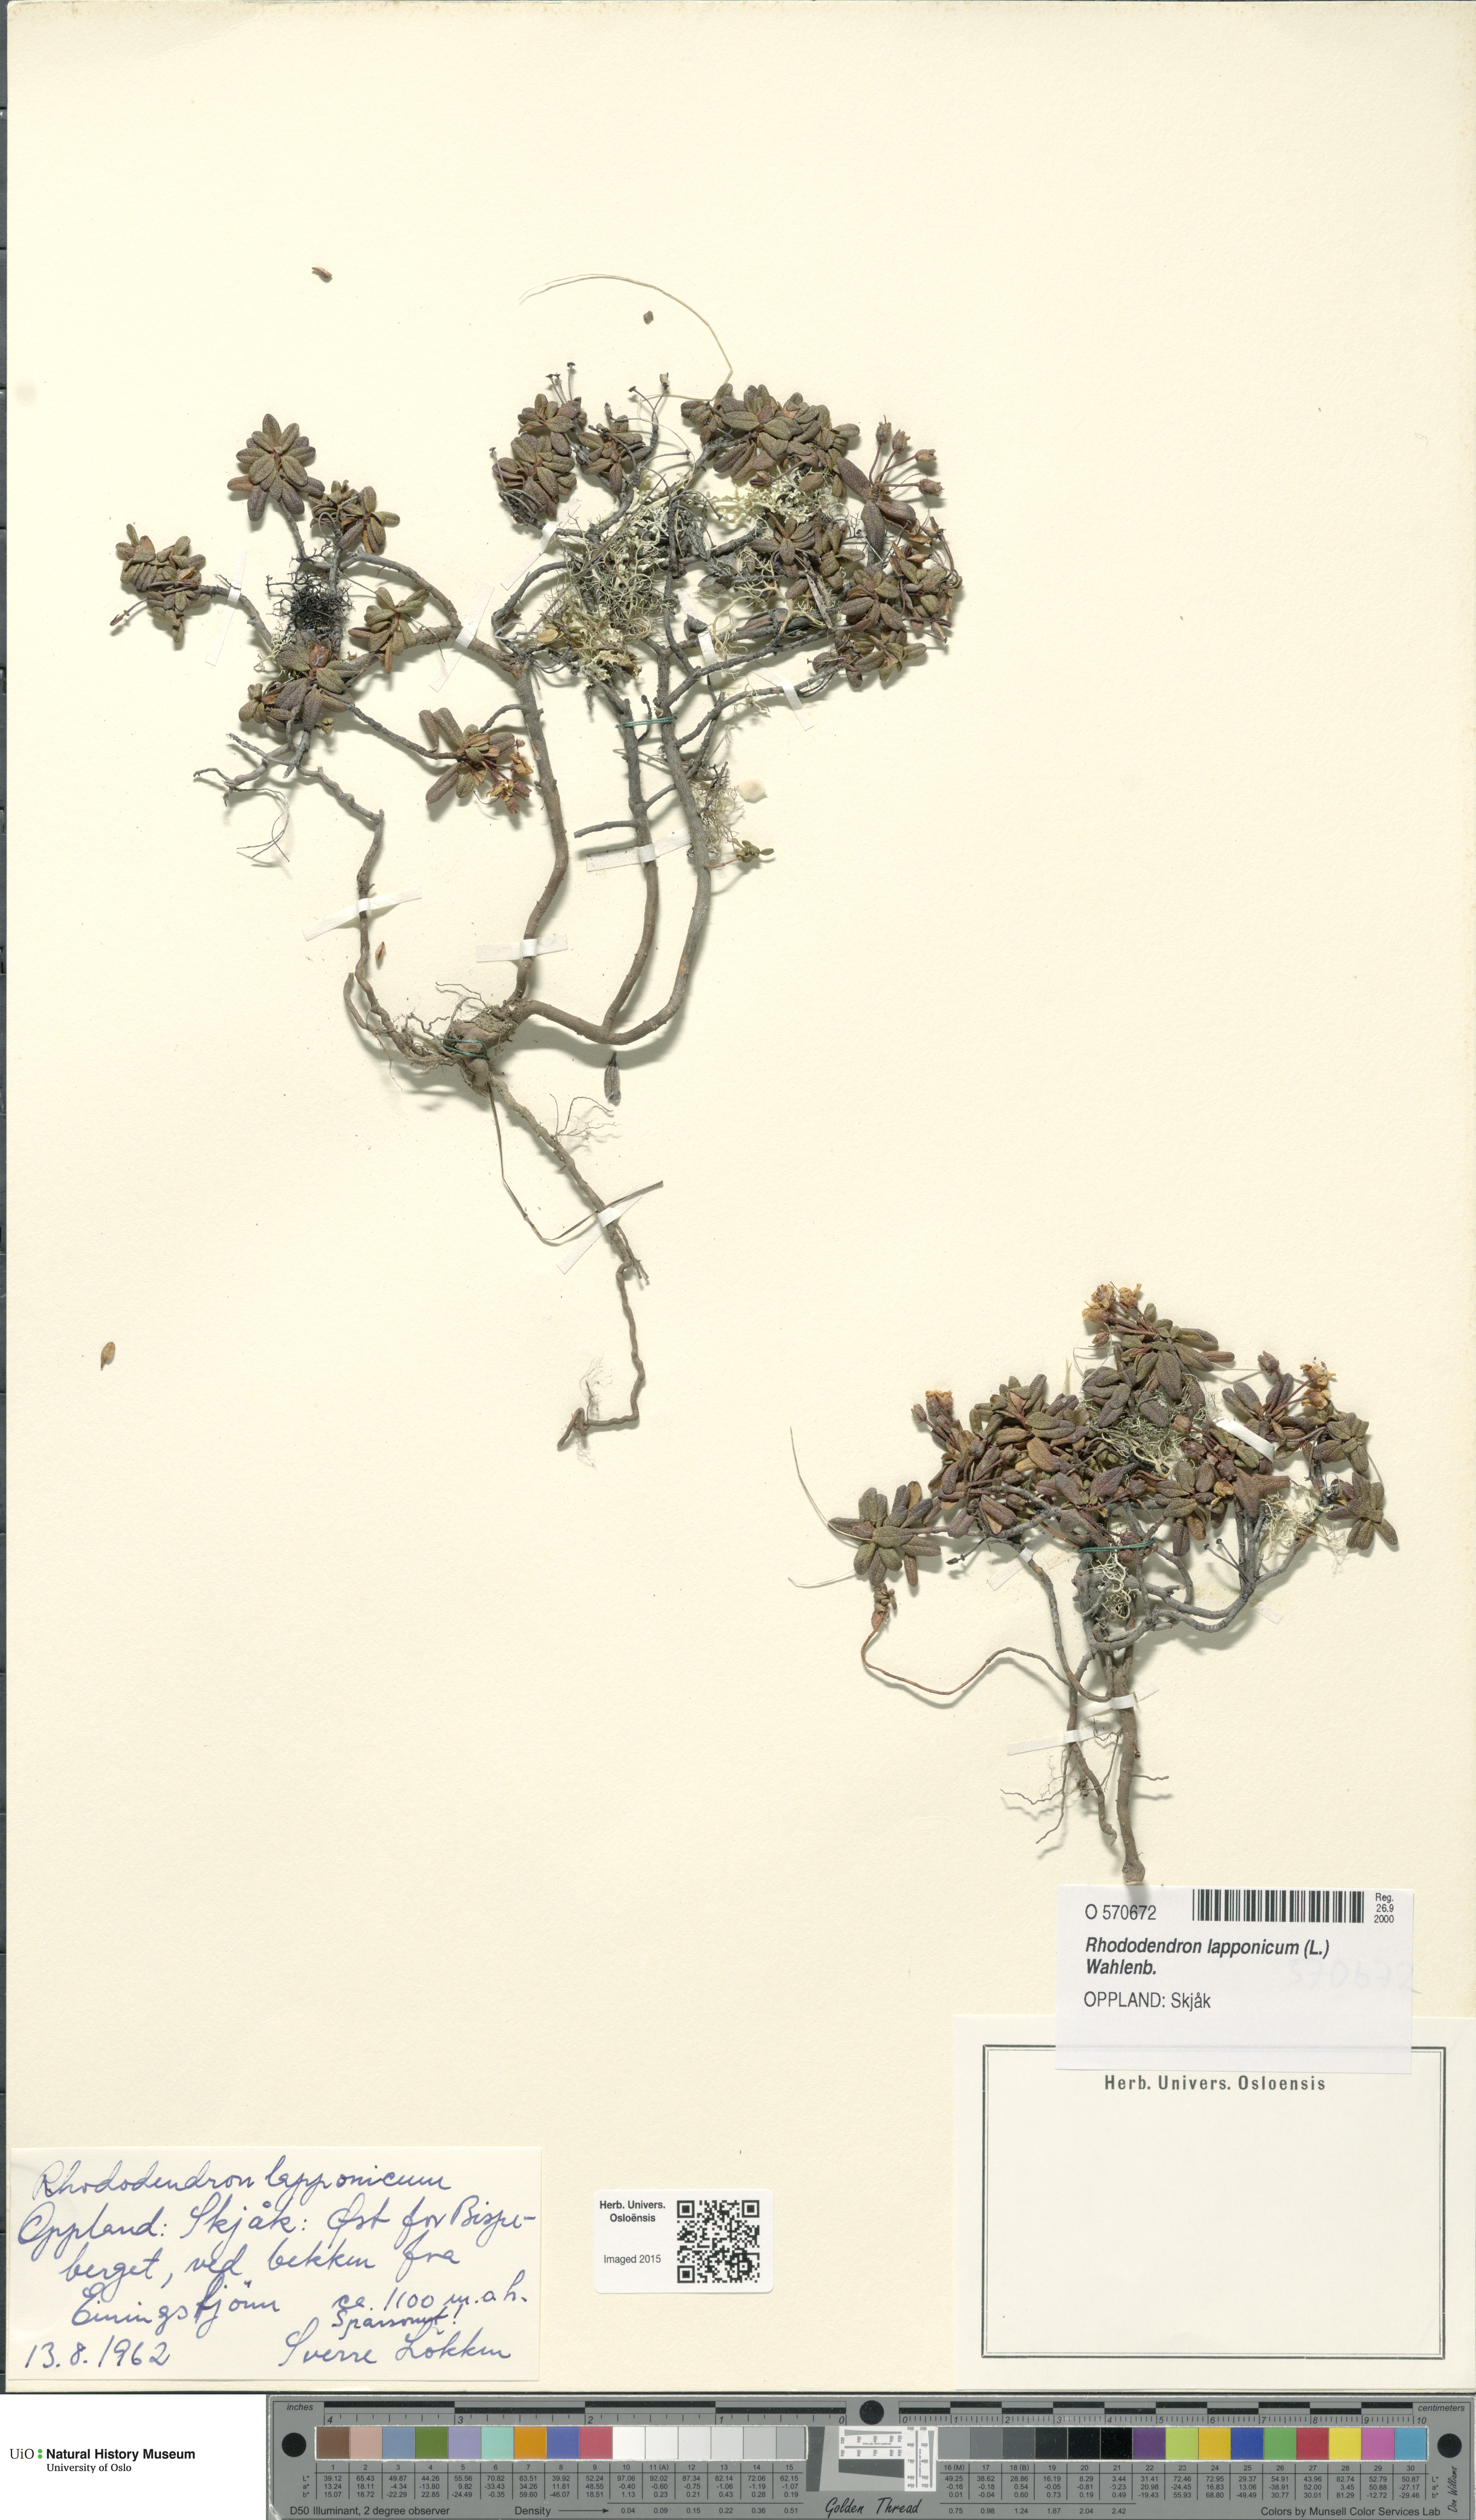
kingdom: Plantae
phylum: Tracheophyta
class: Magnoliopsida
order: Ericales
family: Ericaceae
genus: Rhododendron
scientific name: Rhododendron lapponicum
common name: Lapland rhododendron
